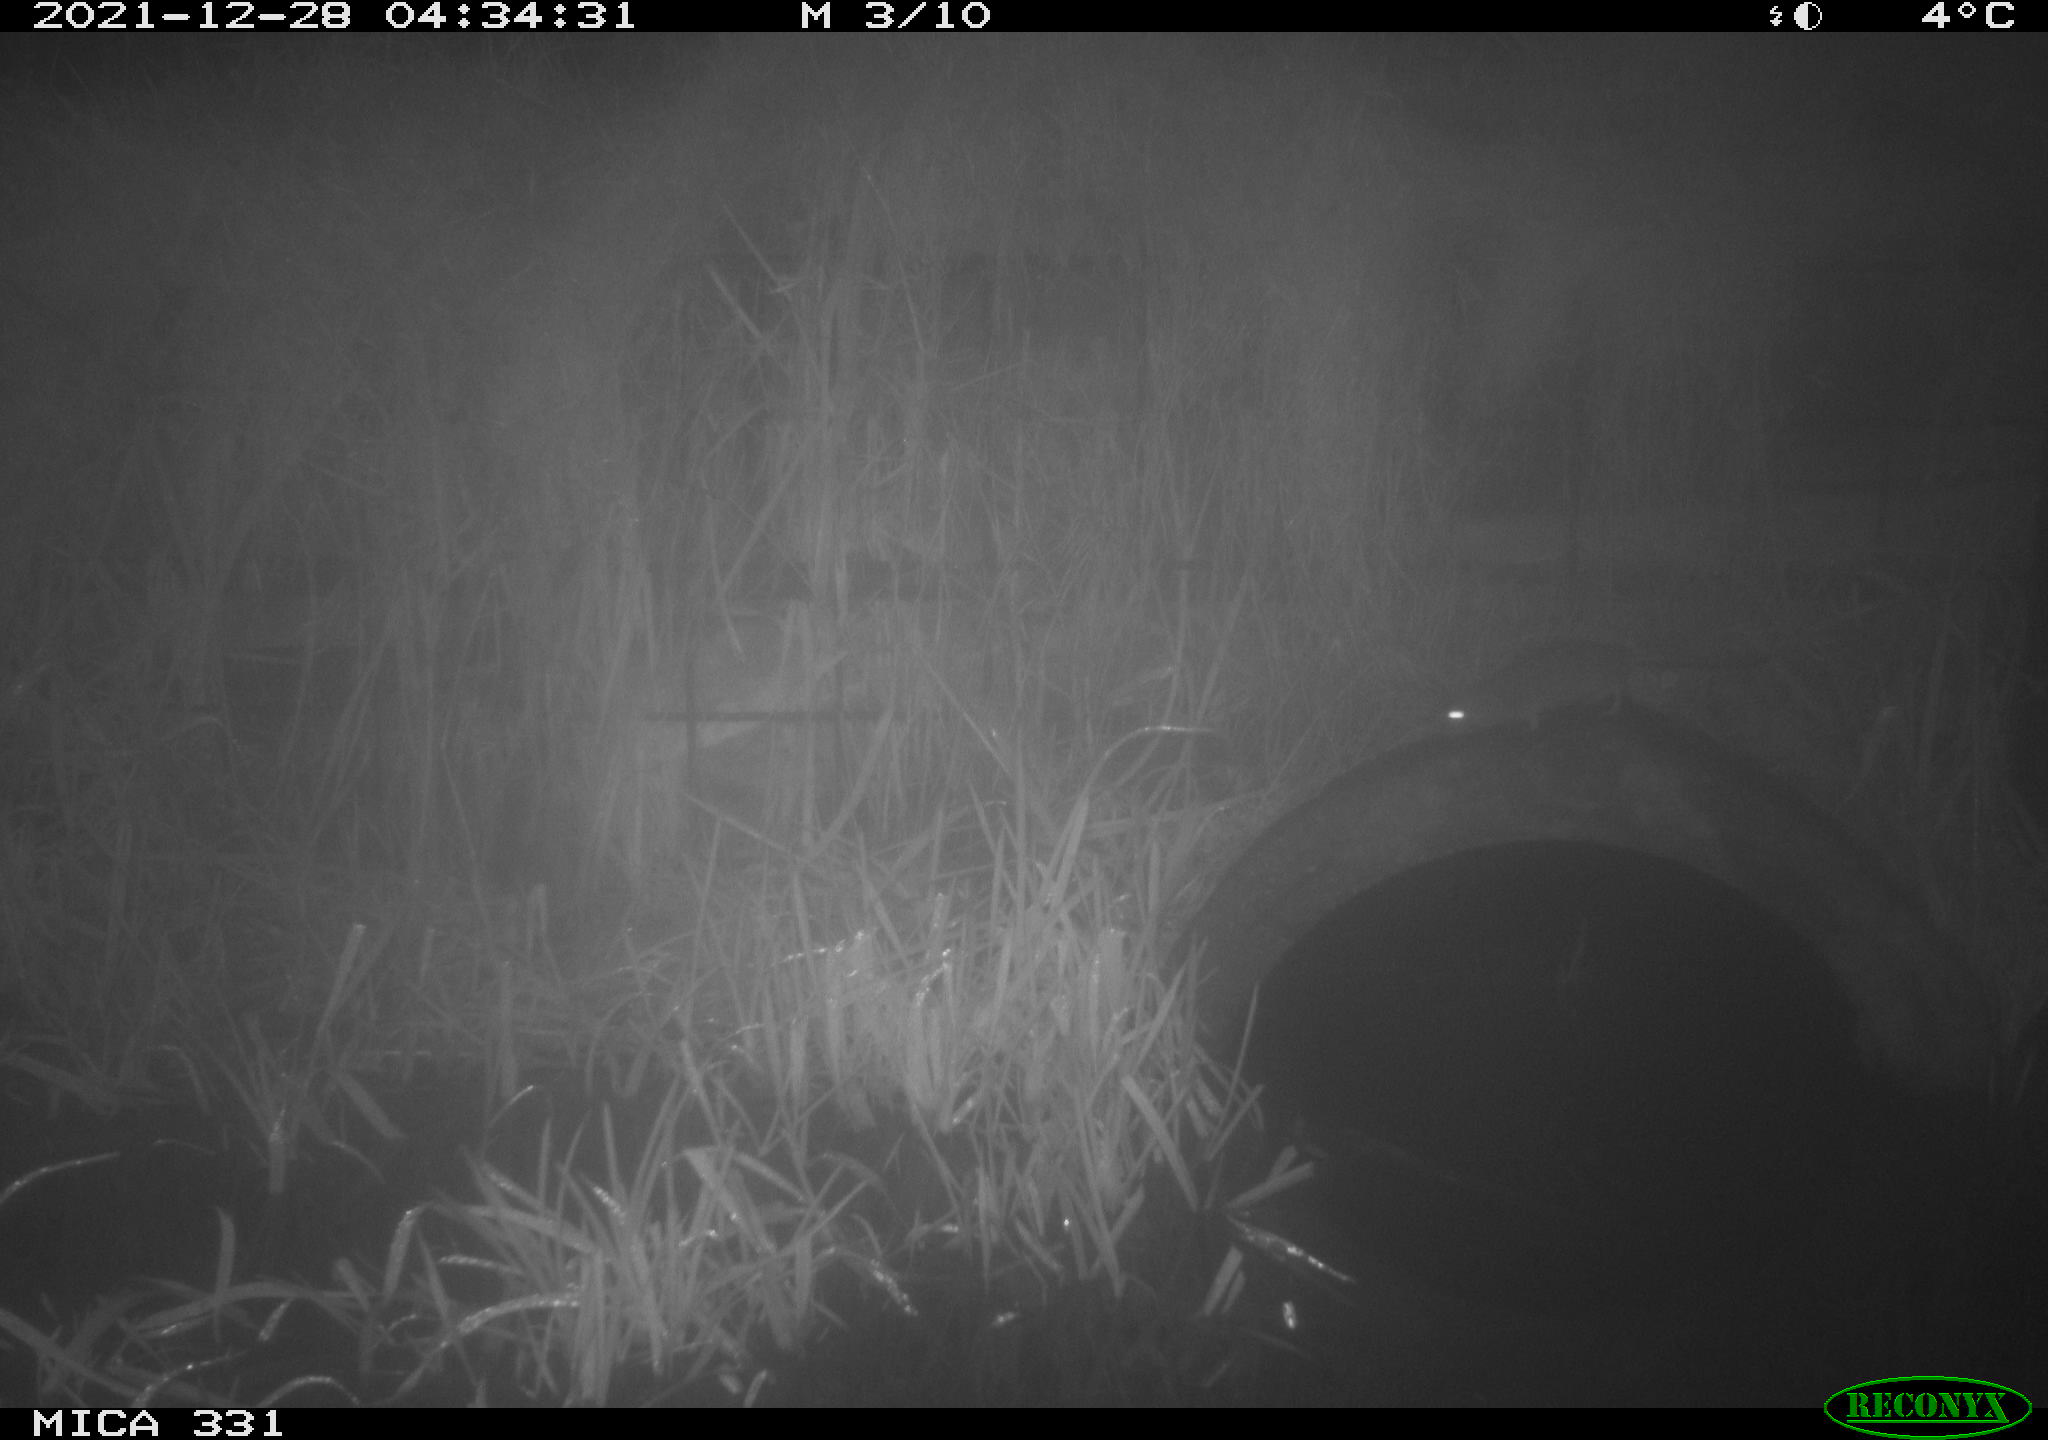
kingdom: Animalia
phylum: Chordata
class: Mammalia
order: Rodentia
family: Muridae
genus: Rattus
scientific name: Rattus norvegicus
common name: Brown rat
